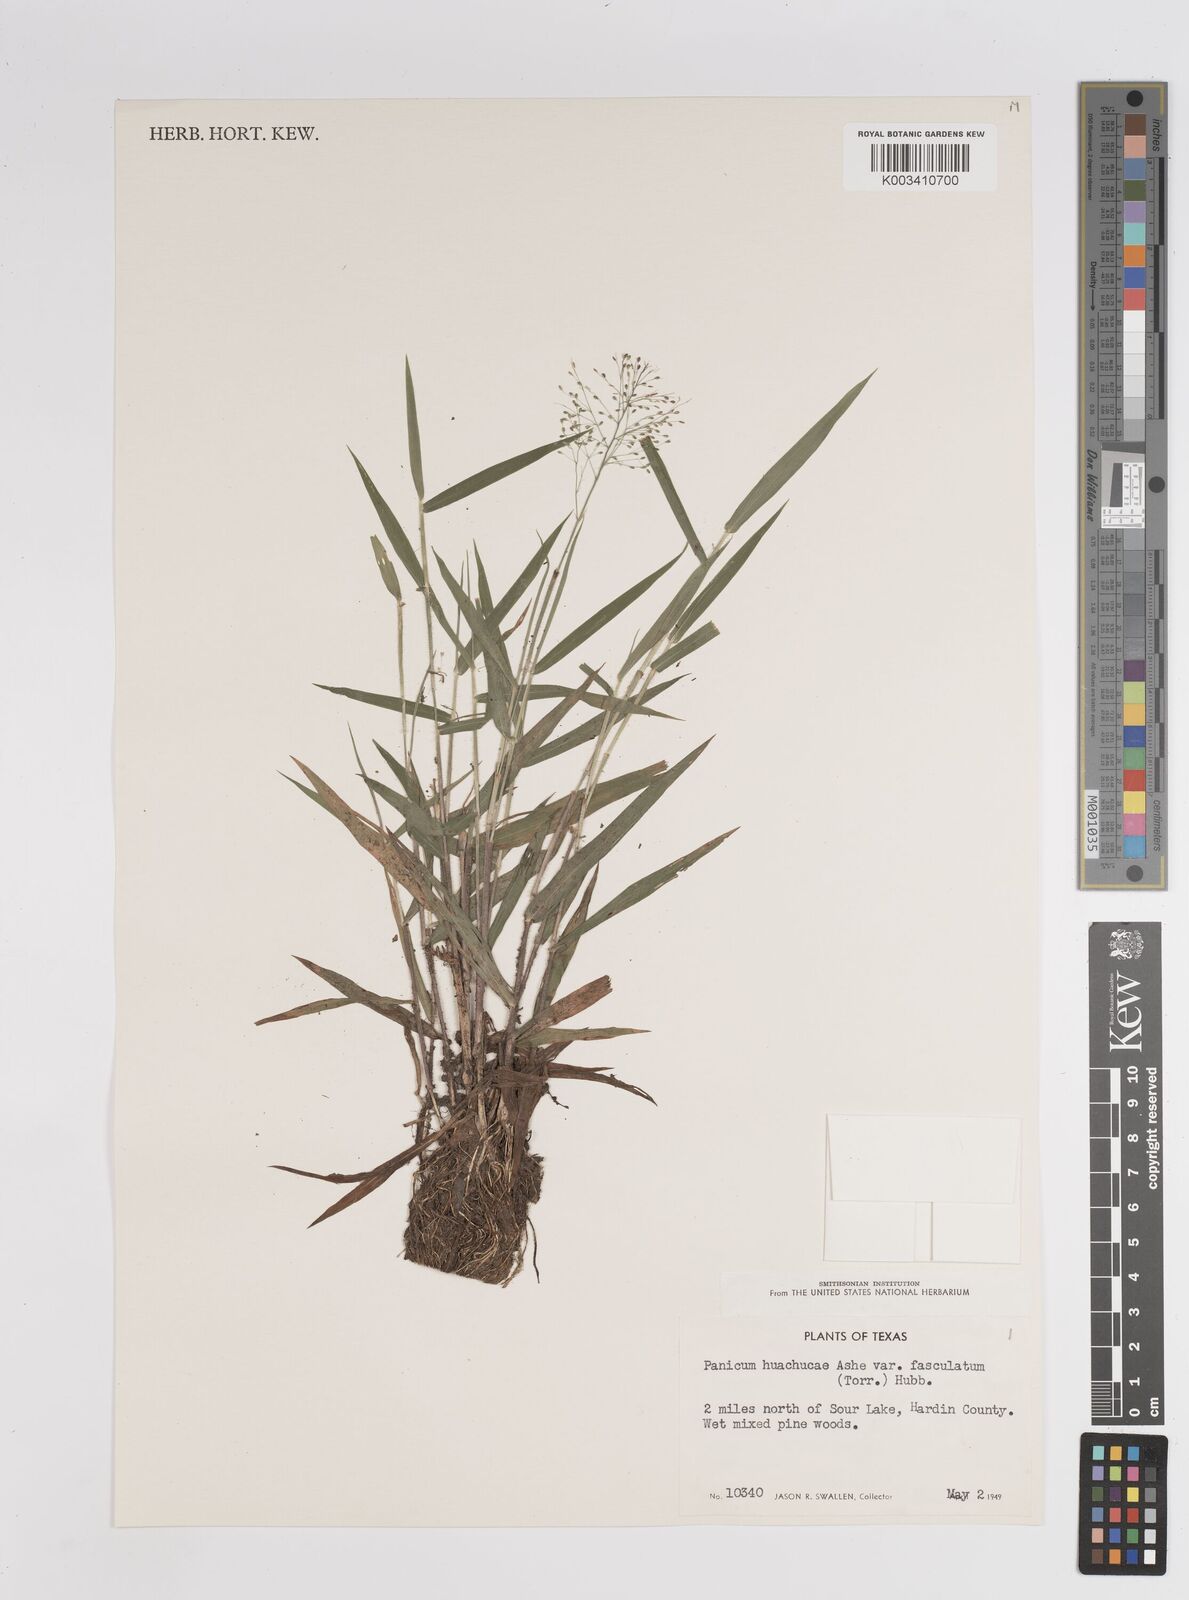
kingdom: Plantae
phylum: Tracheophyta
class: Liliopsida
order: Poales
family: Poaceae
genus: Dichanthelium
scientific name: Dichanthelium lanuginosum
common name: Woolly panicgrass
